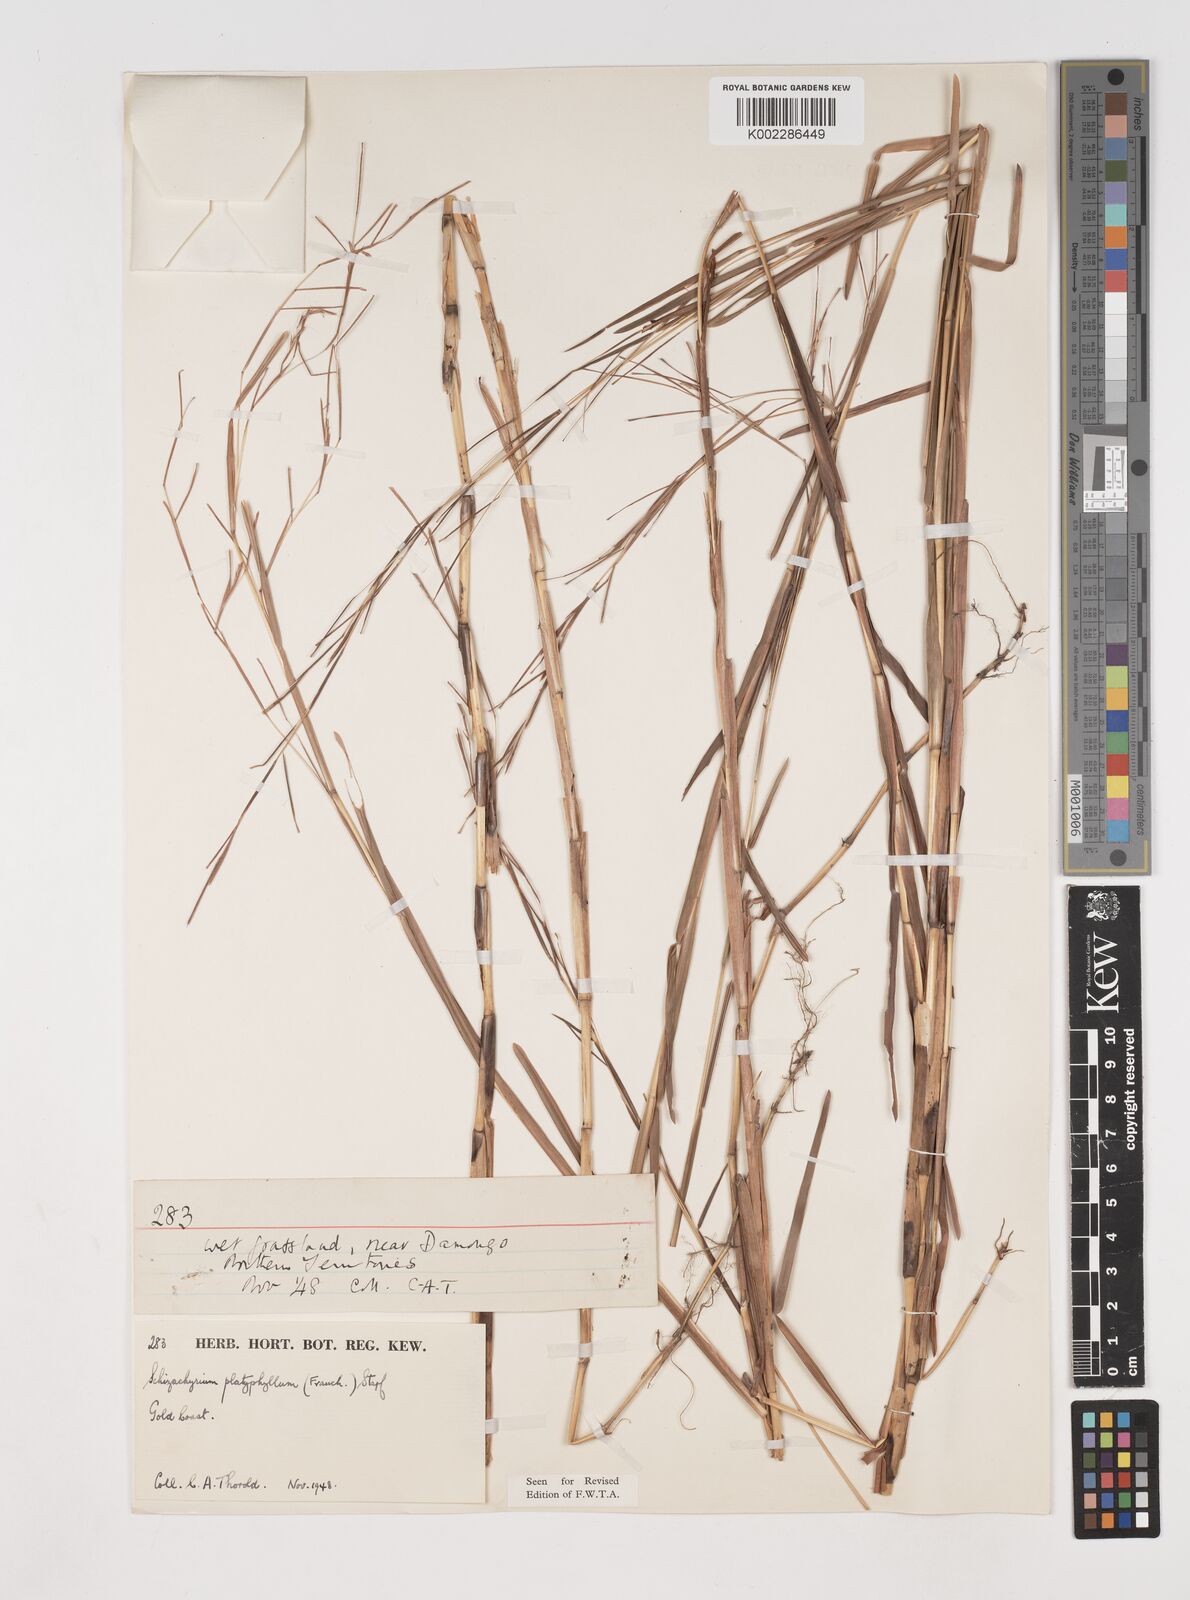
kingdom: Plantae
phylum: Tracheophyta
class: Liliopsida
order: Poales
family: Poaceae
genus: Schizachyrium
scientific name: Schizachyrium platyphyllum
